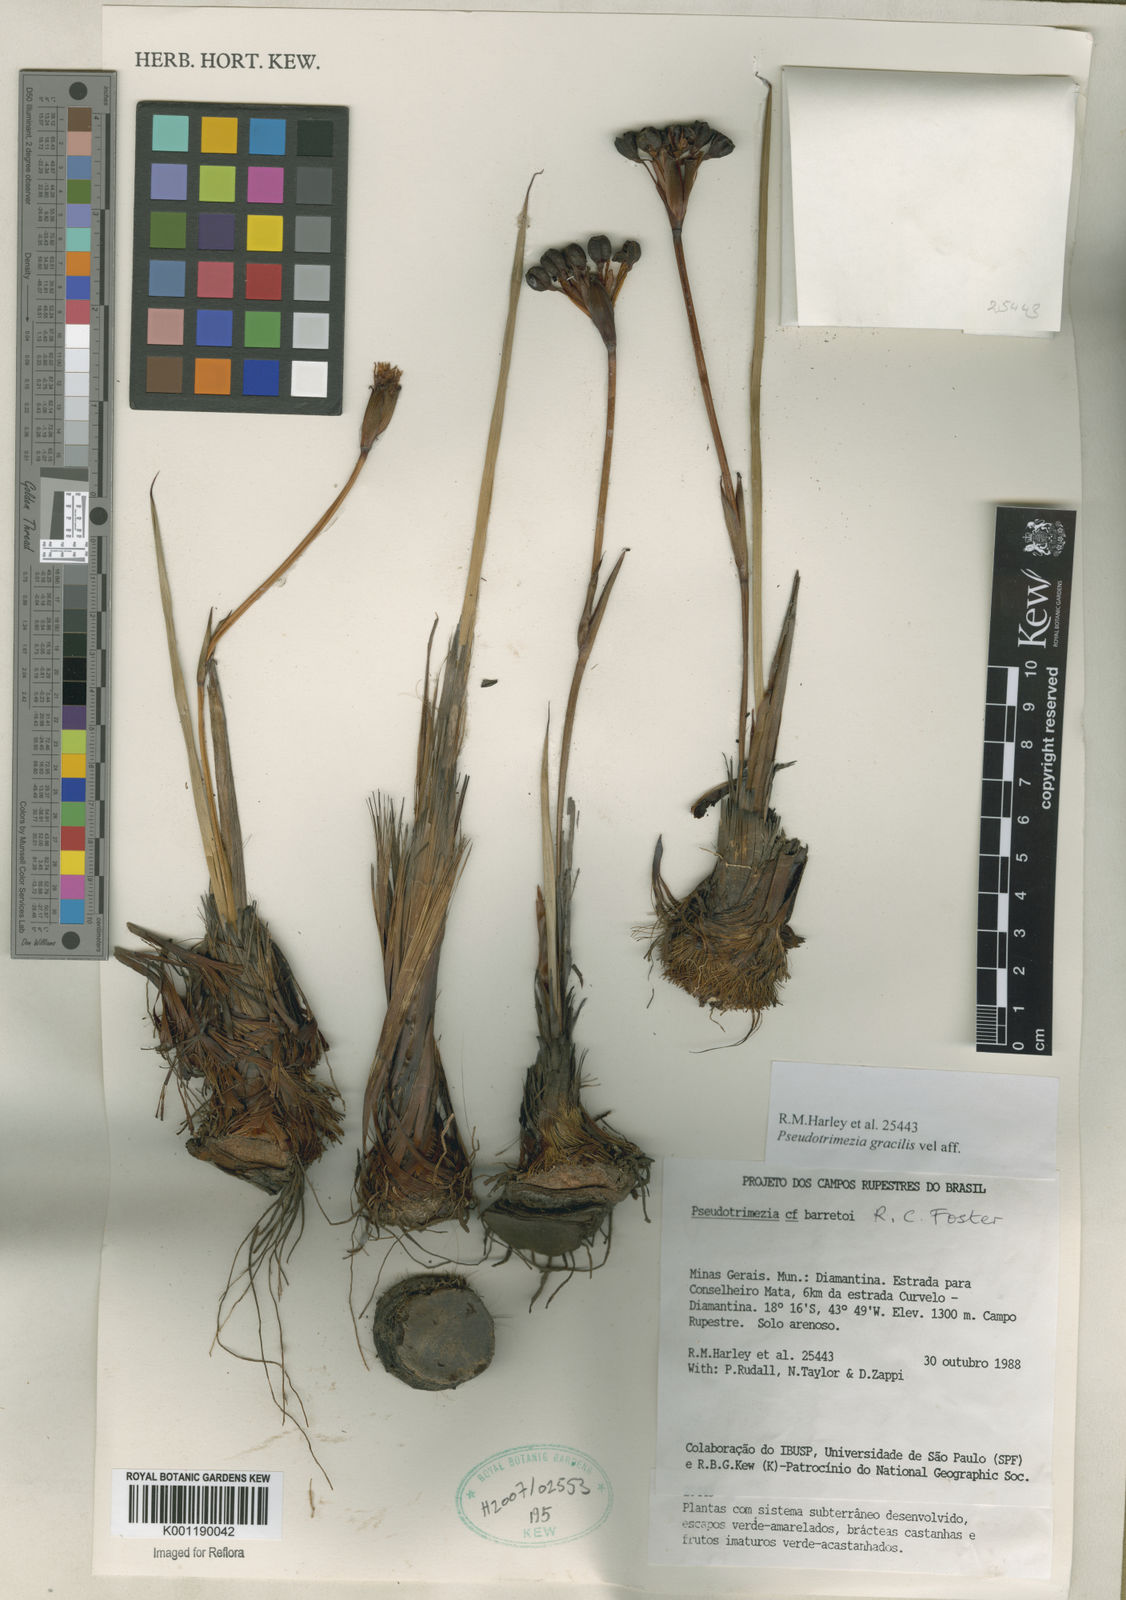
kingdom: Plantae
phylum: Tracheophyta
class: Liliopsida
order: Asparagales
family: Iridaceae
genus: Trimezia
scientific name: Trimezia barretoi
